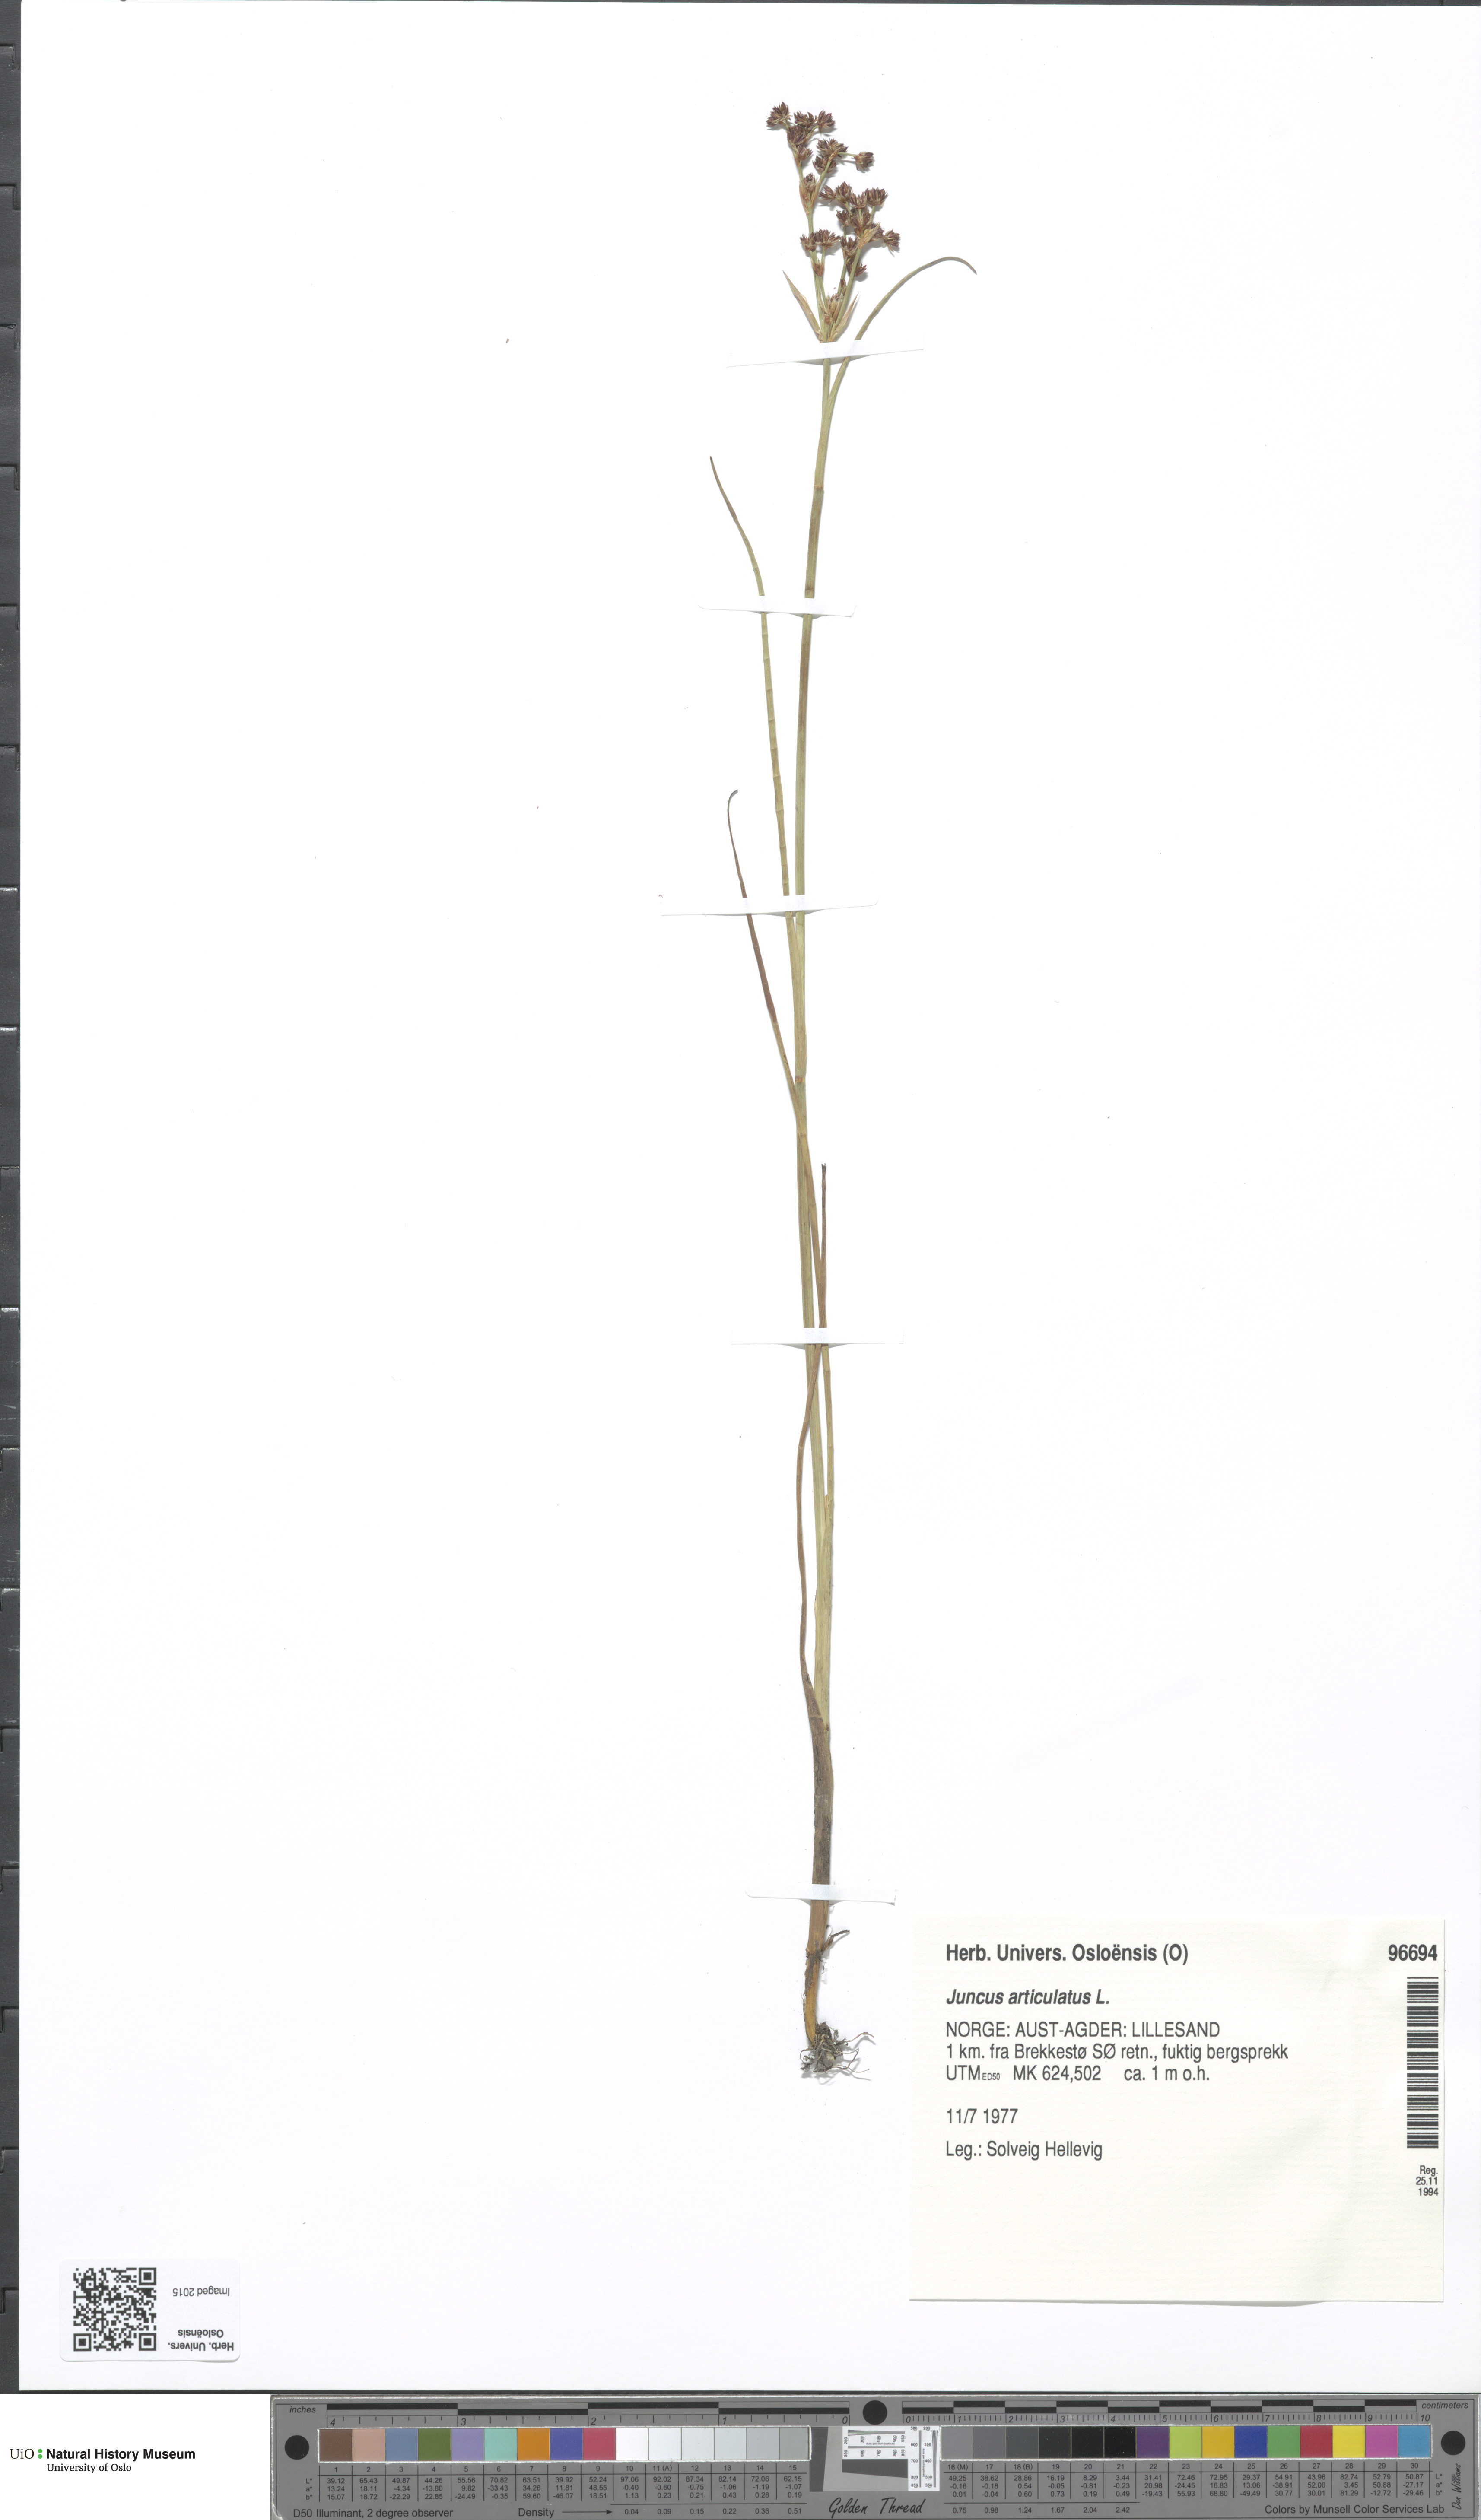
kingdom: Plantae
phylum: Tracheophyta
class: Liliopsida
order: Poales
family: Juncaceae
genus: Juncus
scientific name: Juncus articulatus
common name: Jointed rush
